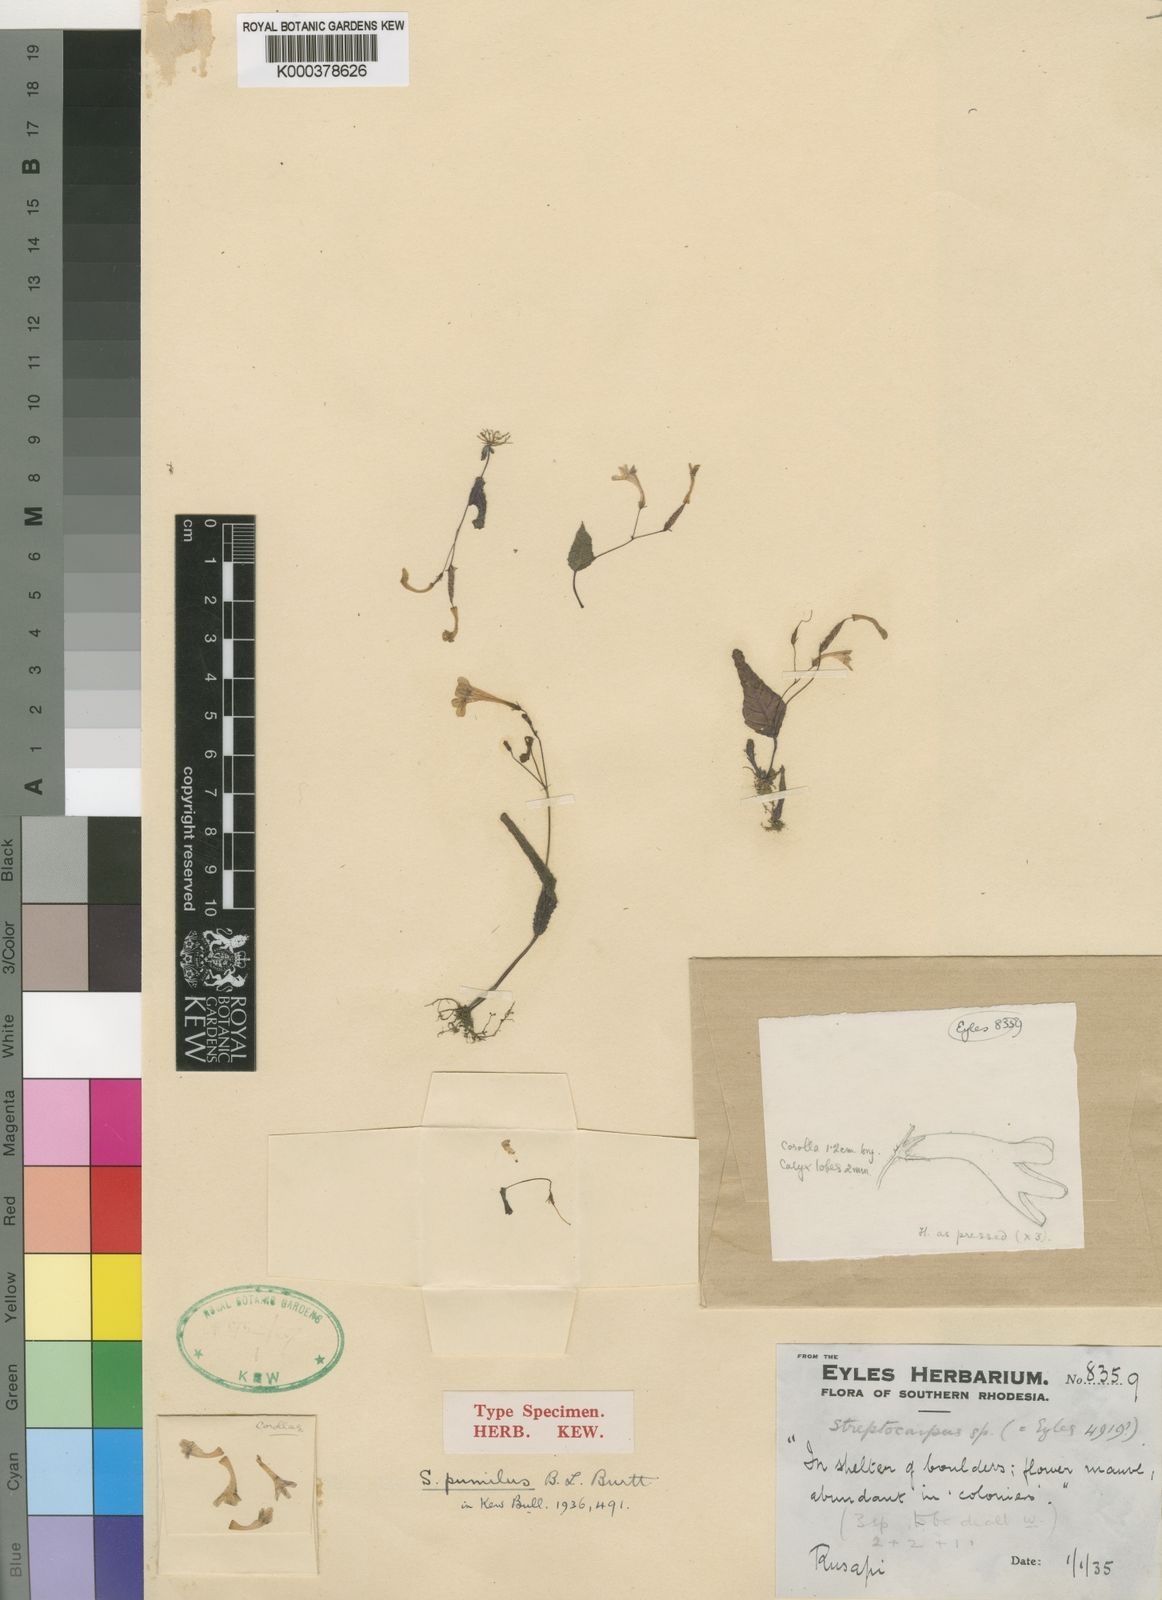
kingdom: Plantae
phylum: Tracheophyta
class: Magnoliopsida
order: Lamiales
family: Gesneriaceae
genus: Streptocarpus
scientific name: Streptocarpus pumilus
